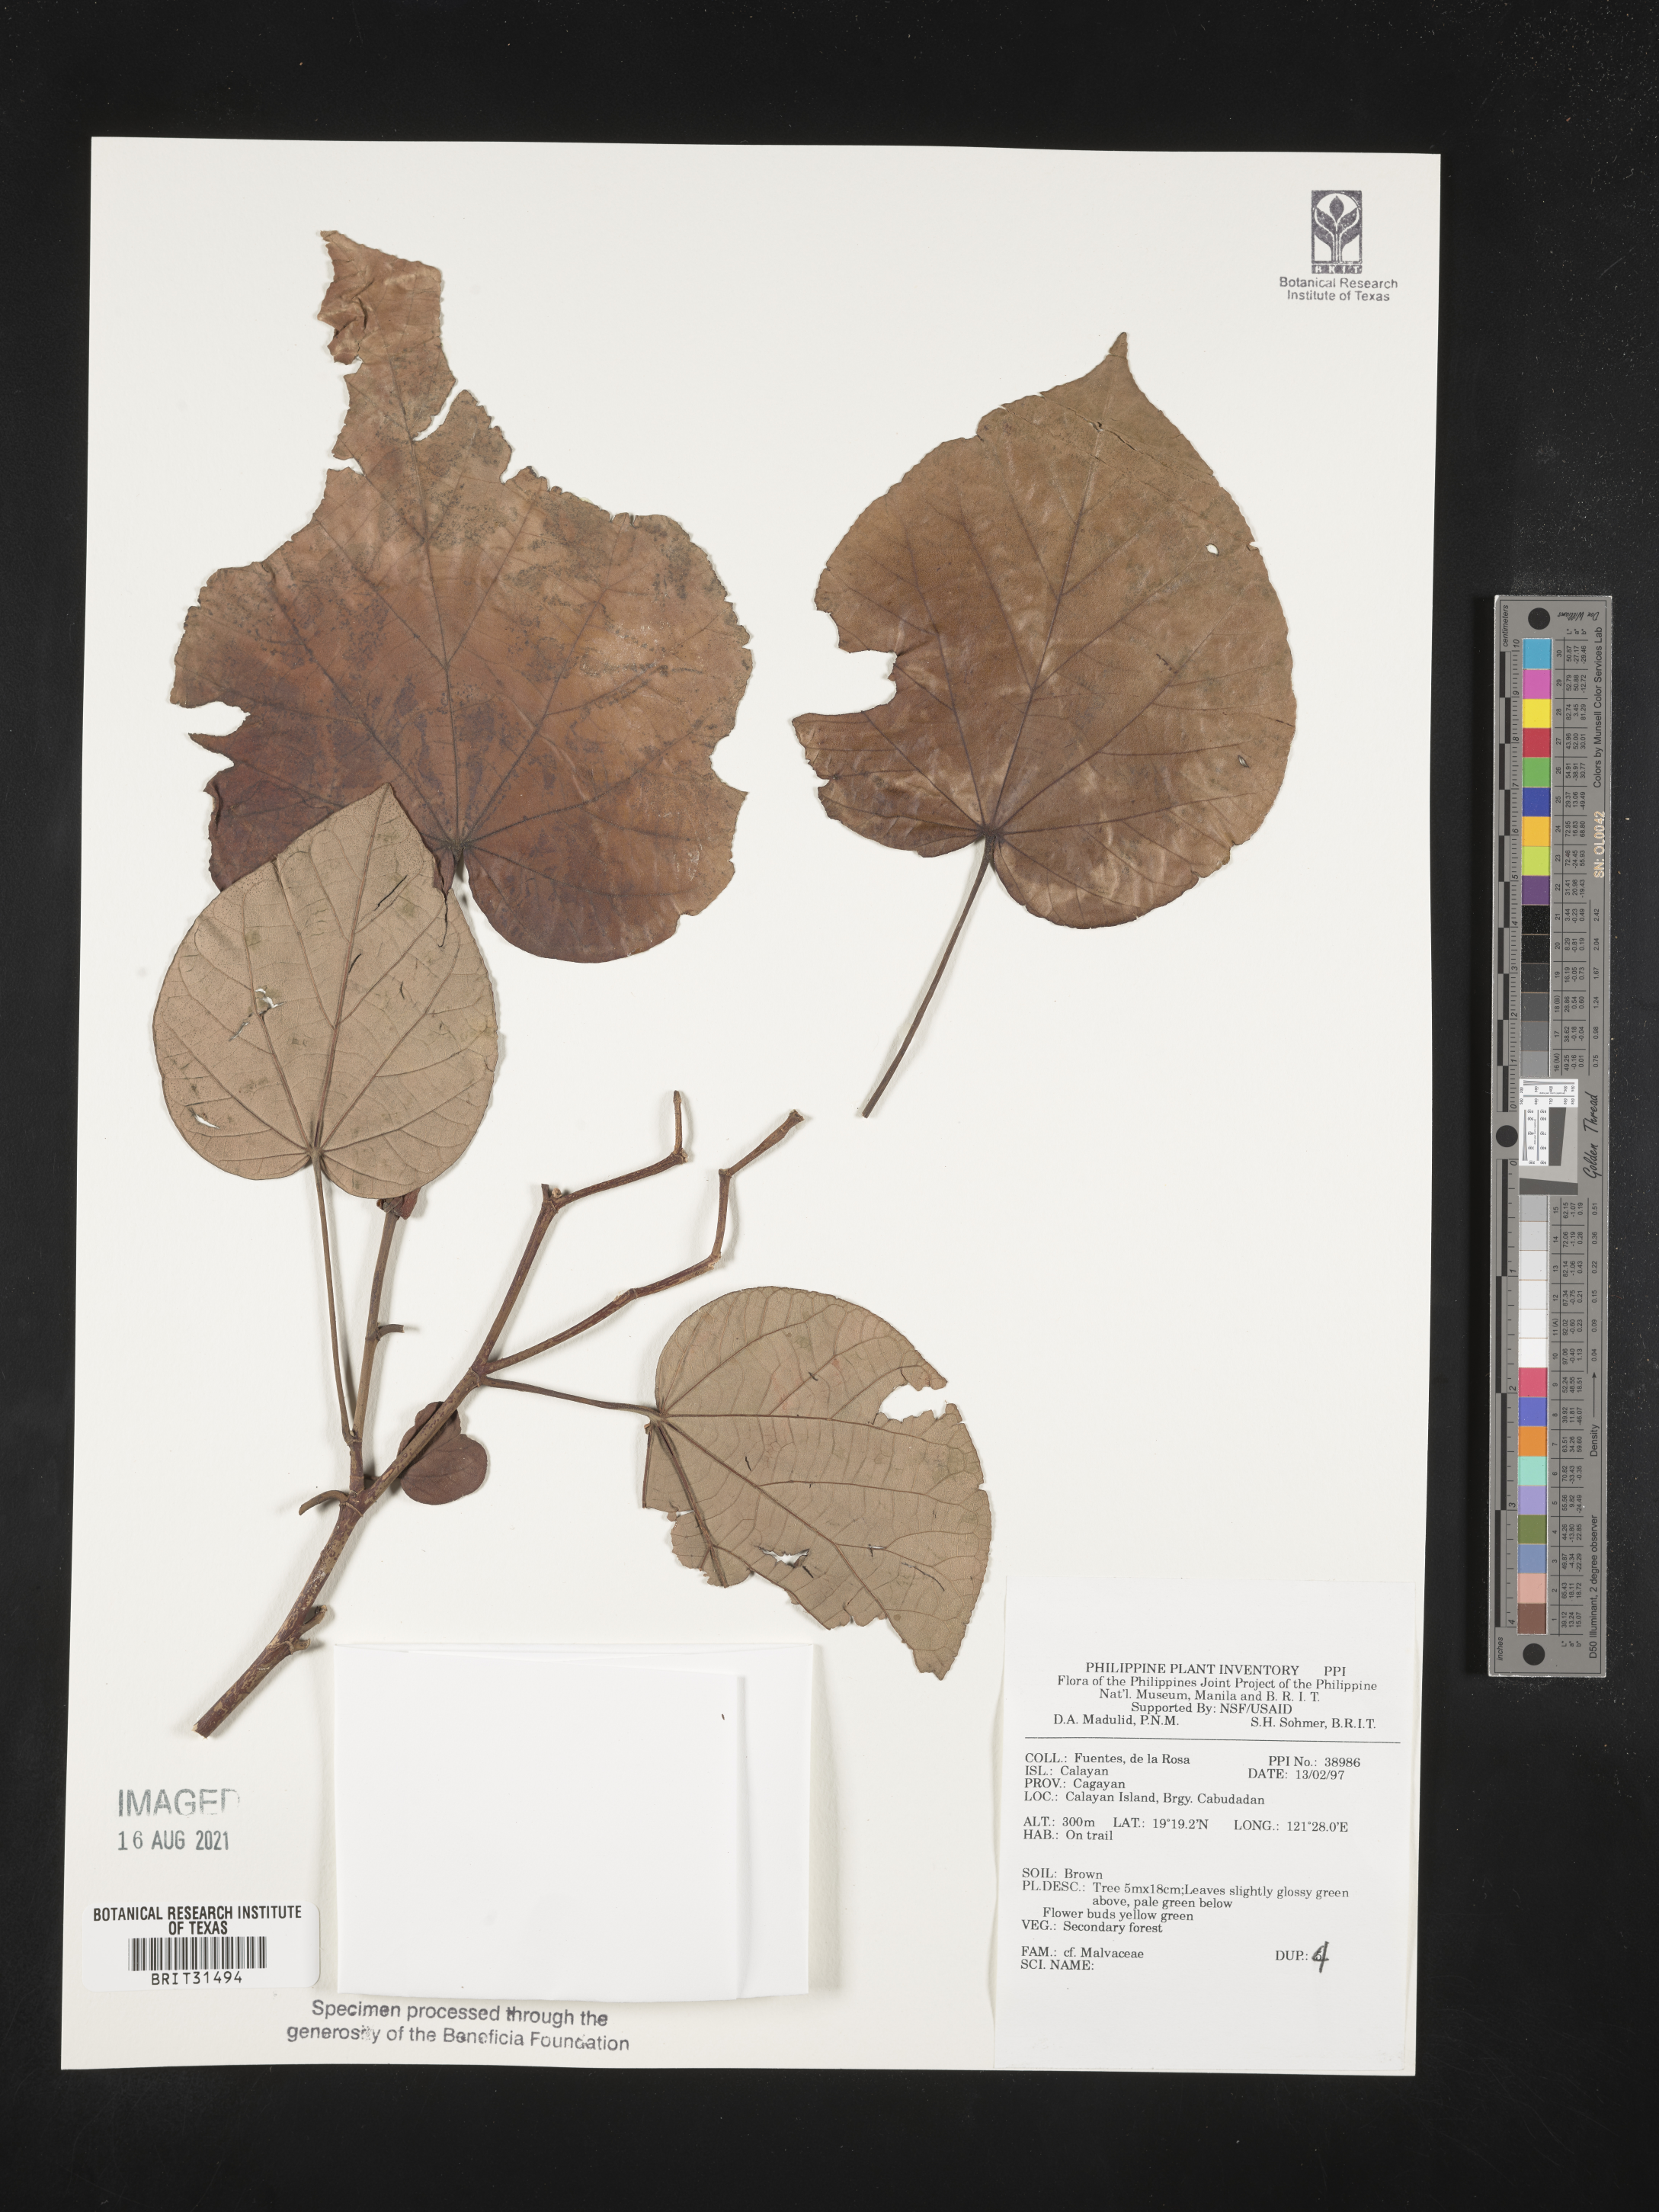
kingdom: Plantae
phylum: Tracheophyta
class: Magnoliopsida
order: Malvales
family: Malvaceae
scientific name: Malvaceae
